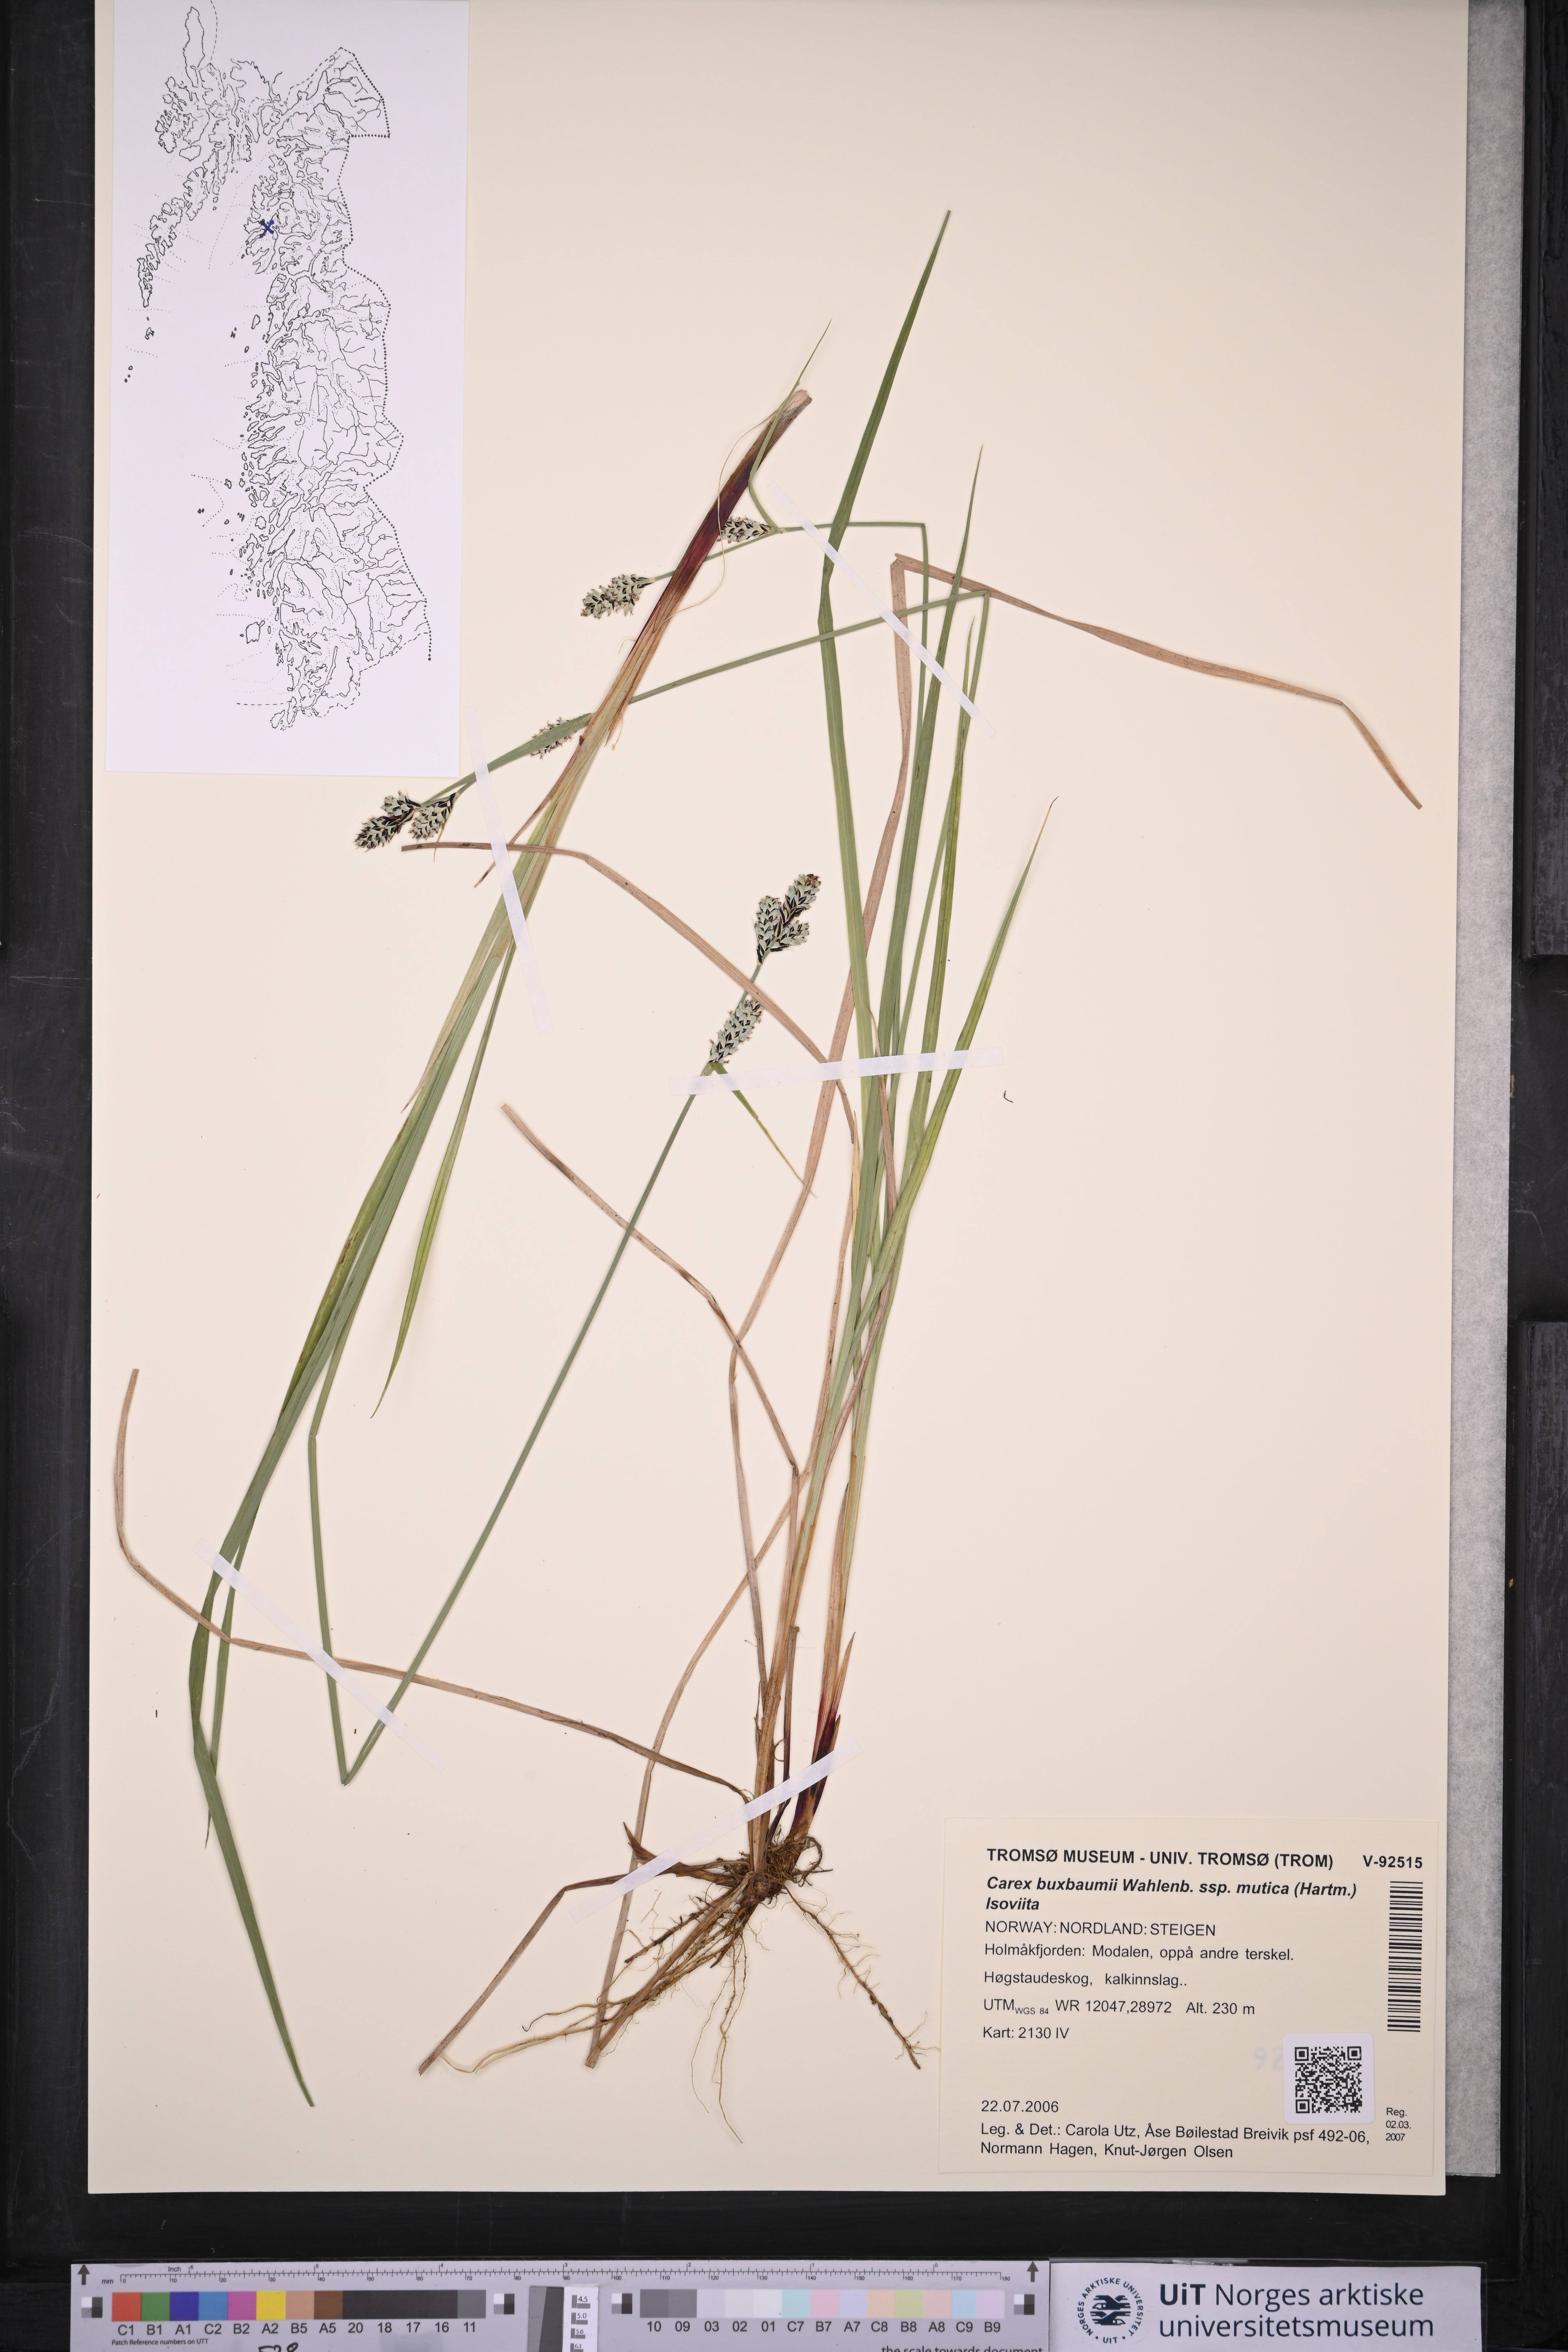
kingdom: Plantae
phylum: Tracheophyta
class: Liliopsida
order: Poales
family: Cyperaceae
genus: Carex
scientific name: Carex adelostoma
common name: Circumpolar sedge
